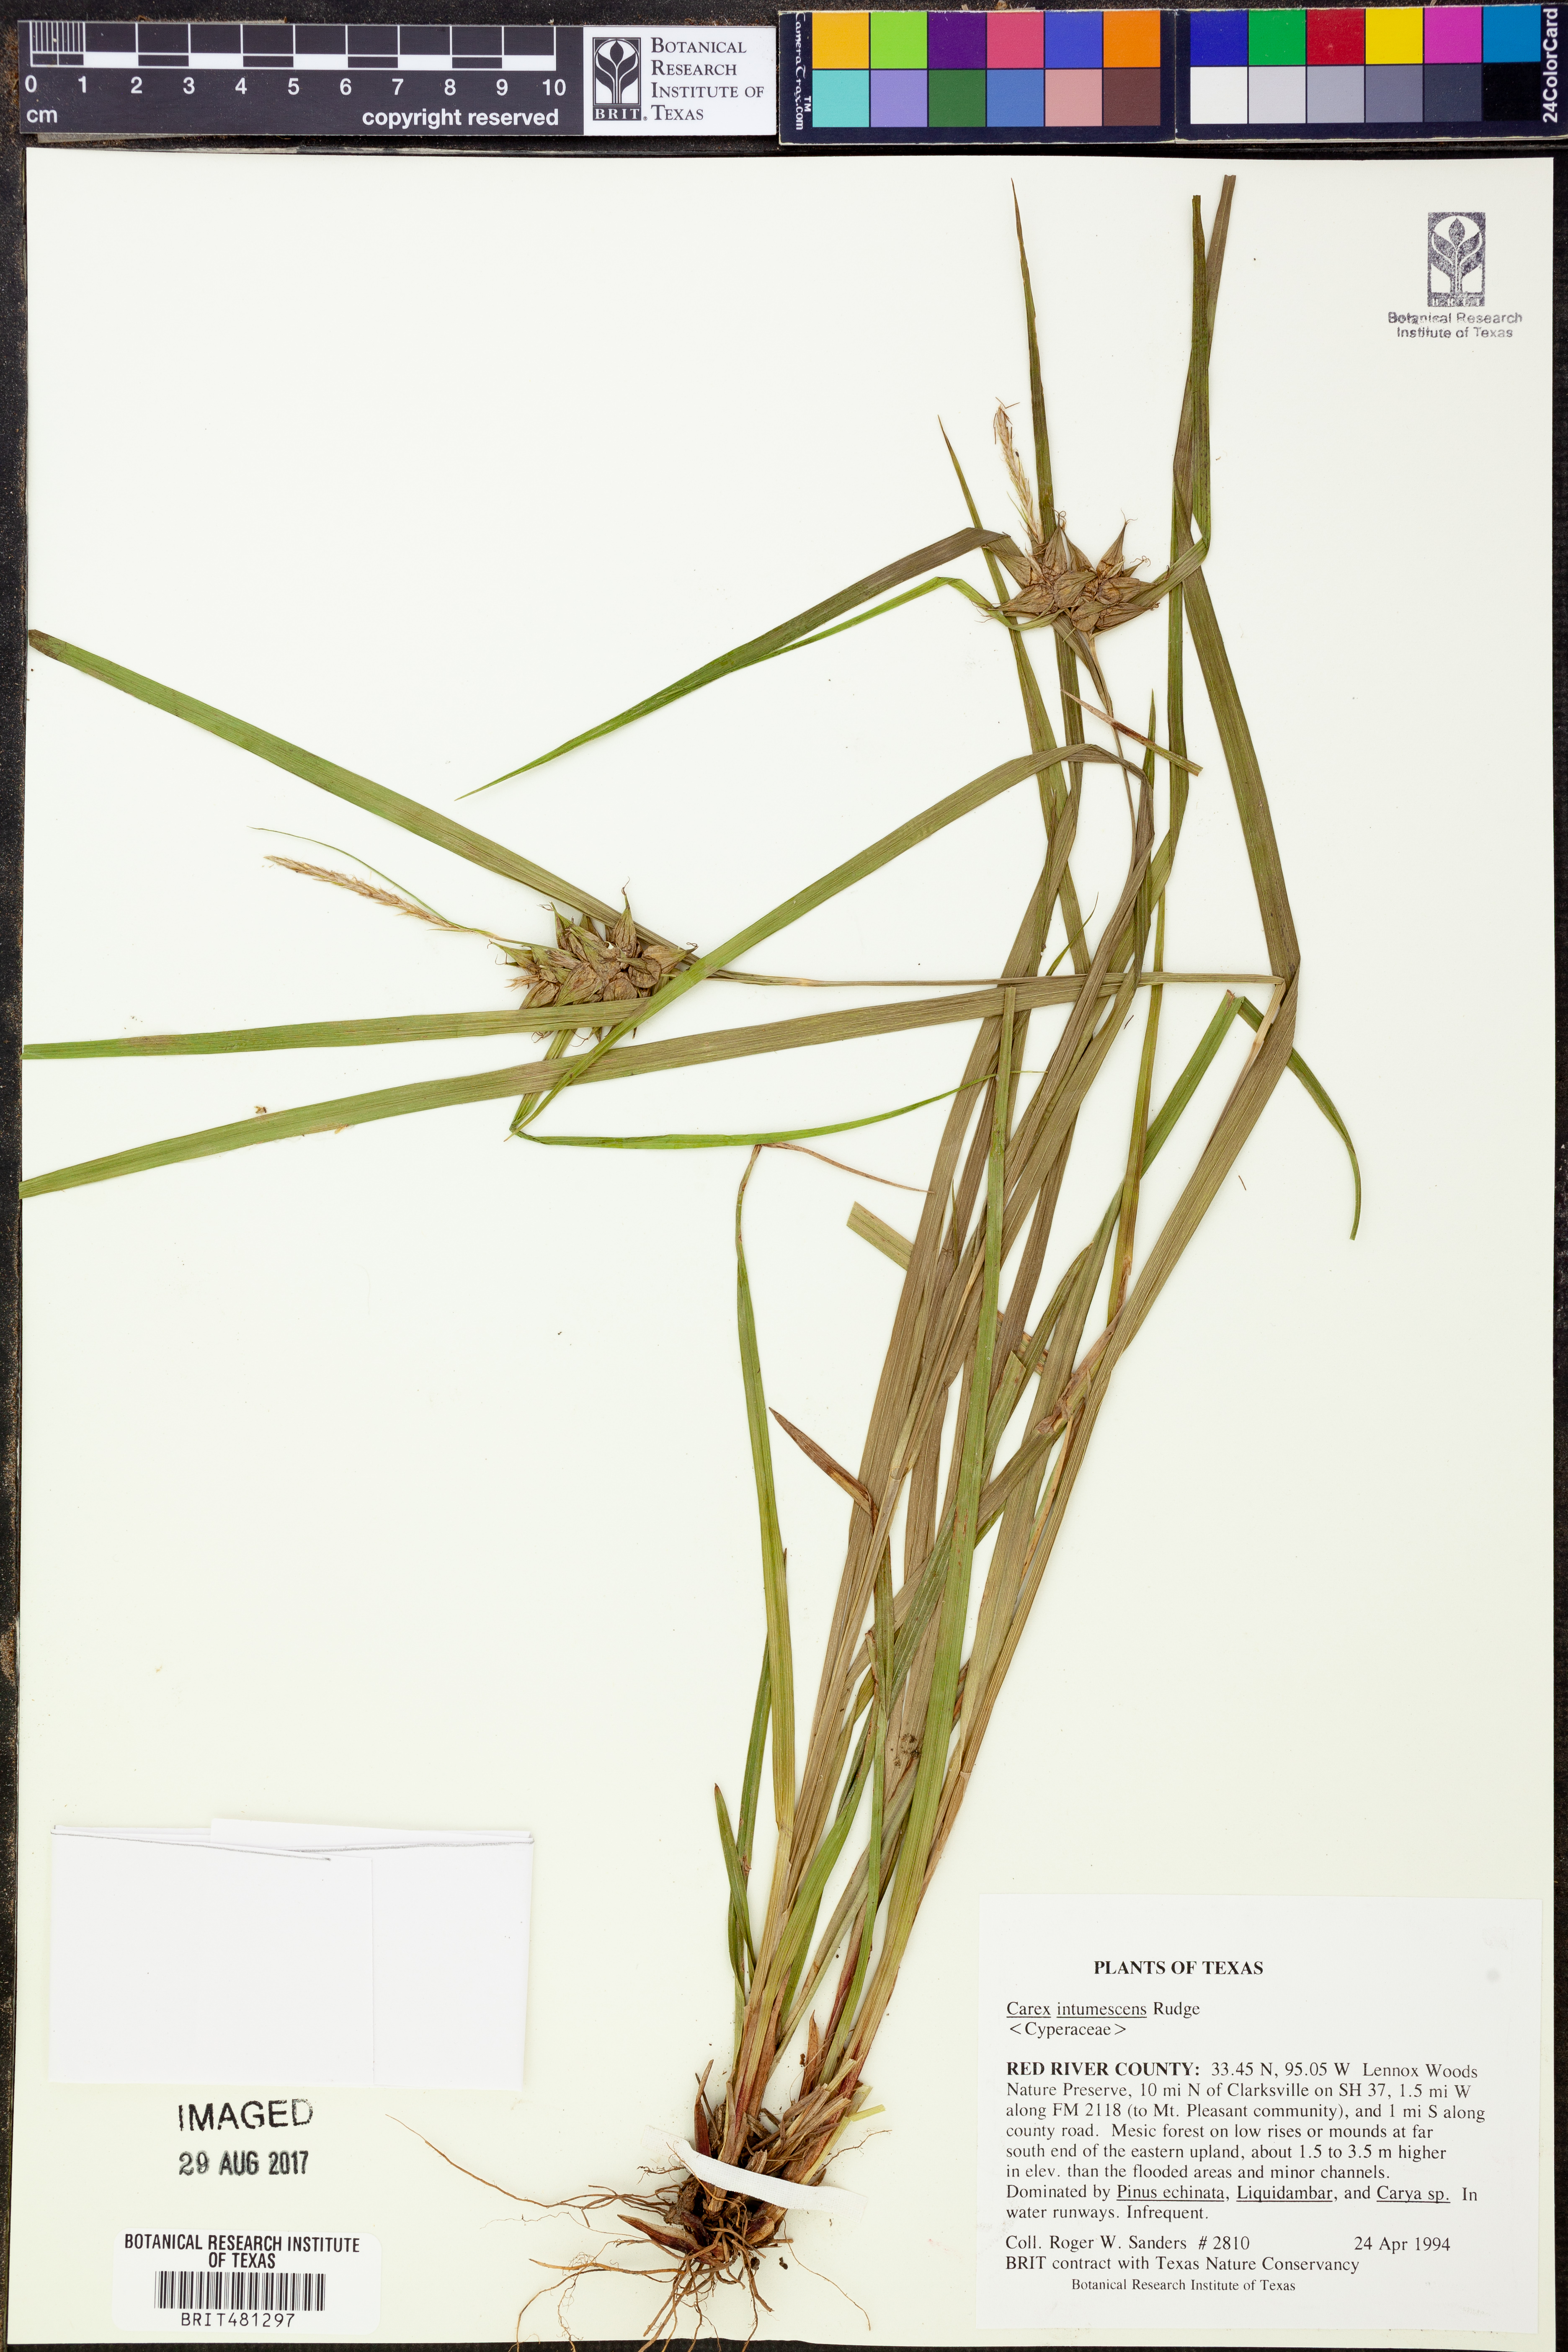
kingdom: Plantae
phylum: Tracheophyta
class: Liliopsida
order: Poales
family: Cyperaceae
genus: Carex
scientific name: Carex intumescens
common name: Greater bladder sedge
